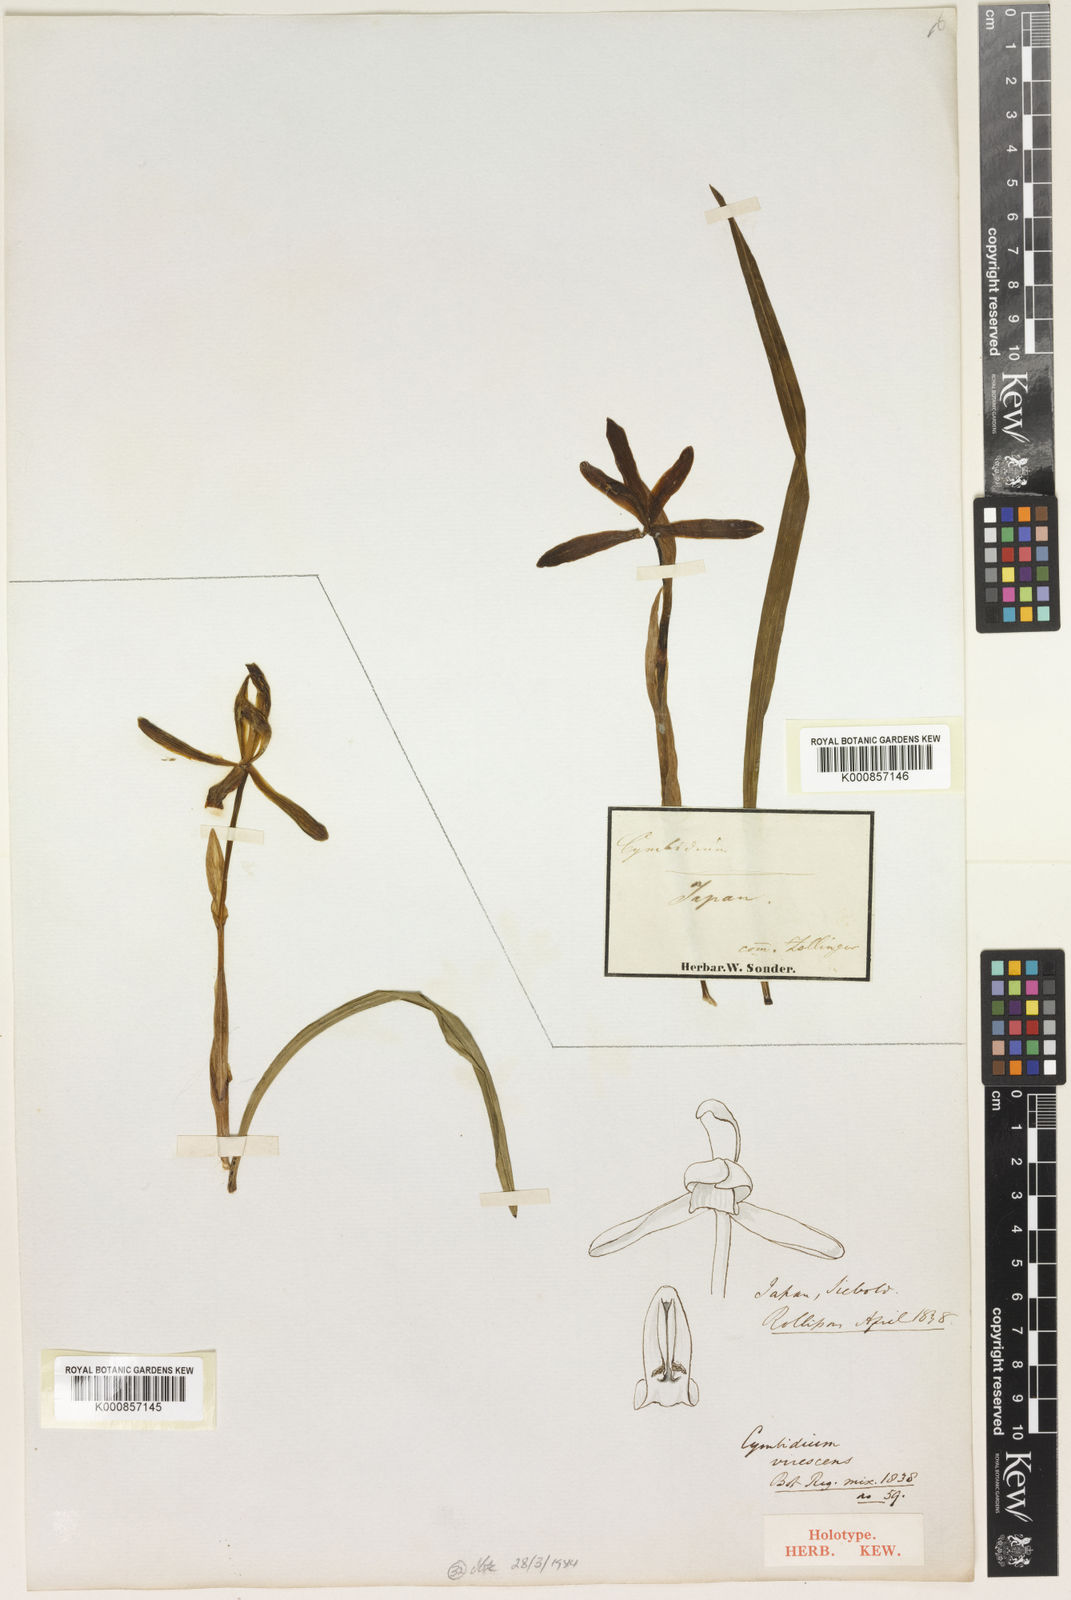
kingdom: Plantae
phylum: Tracheophyta
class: Liliopsida
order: Asparagales
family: Orchidaceae
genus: Cymbidium
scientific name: Cymbidium goeringii
